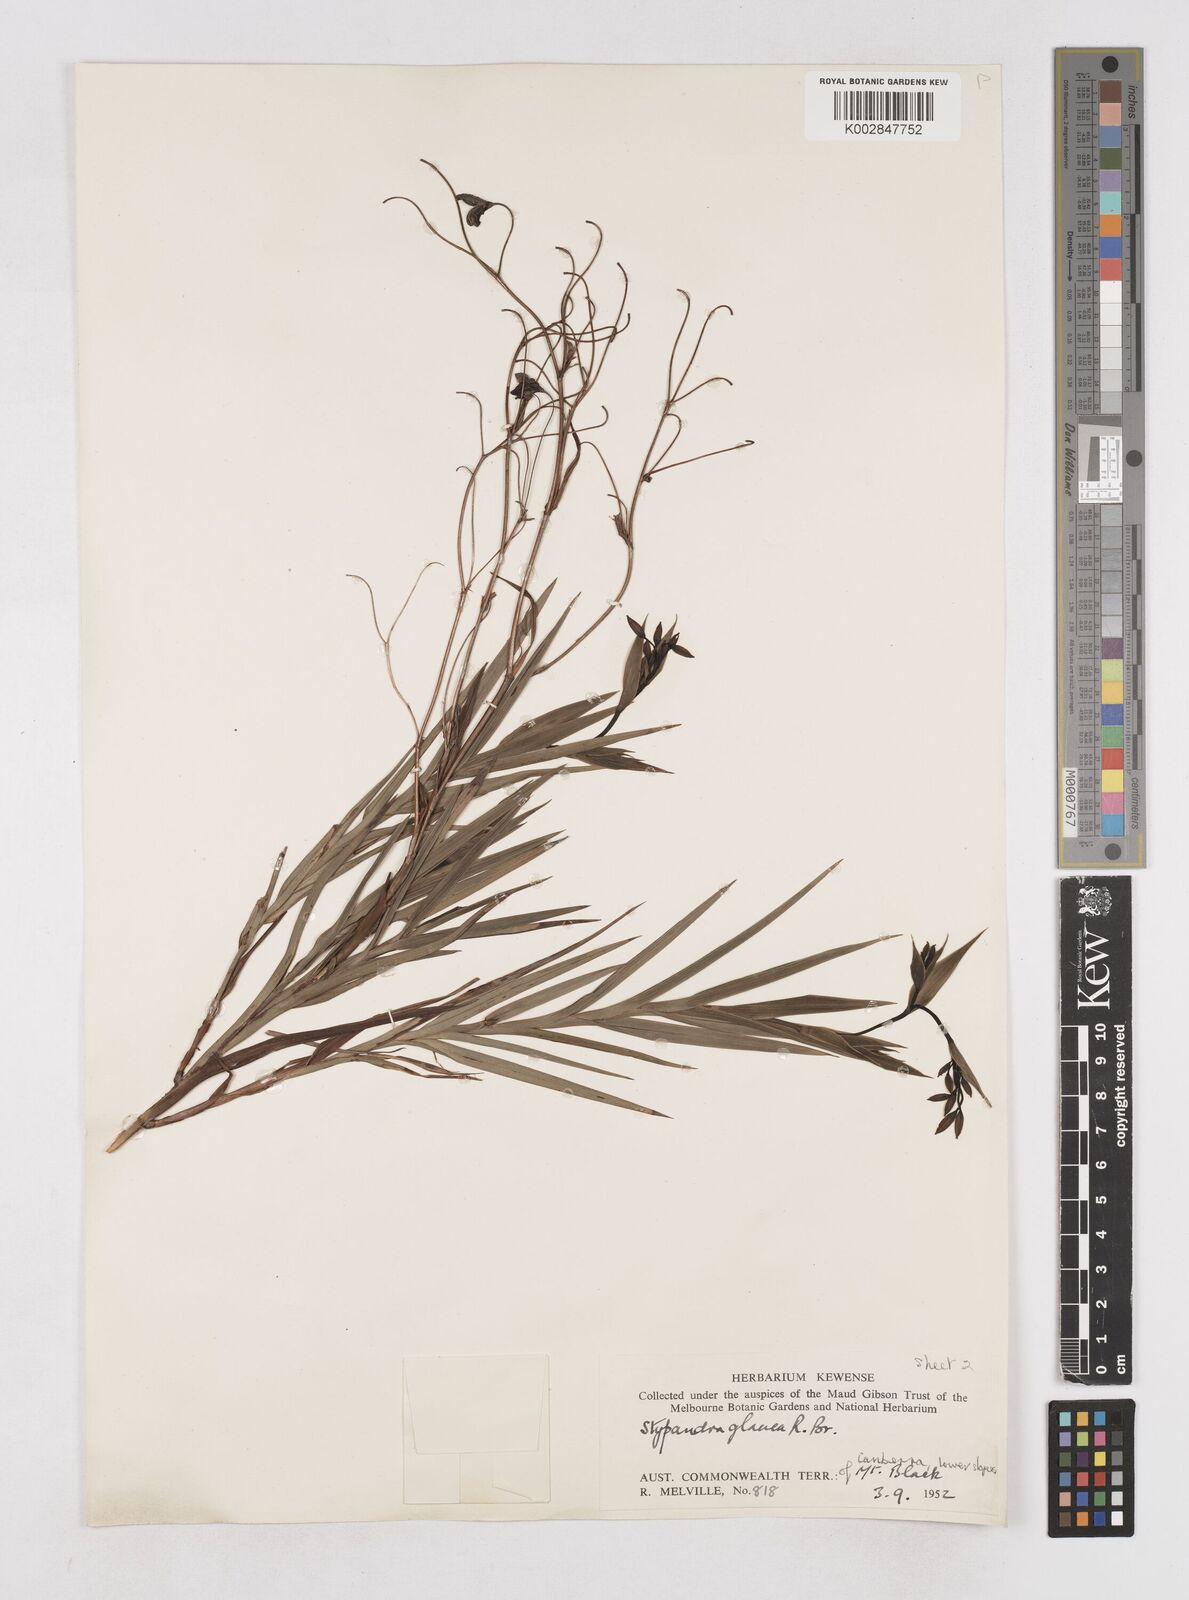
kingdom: Plantae
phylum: Tracheophyta
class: Liliopsida
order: Asparagales
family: Asphodelaceae
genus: Stypandra
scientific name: Stypandra glauca
